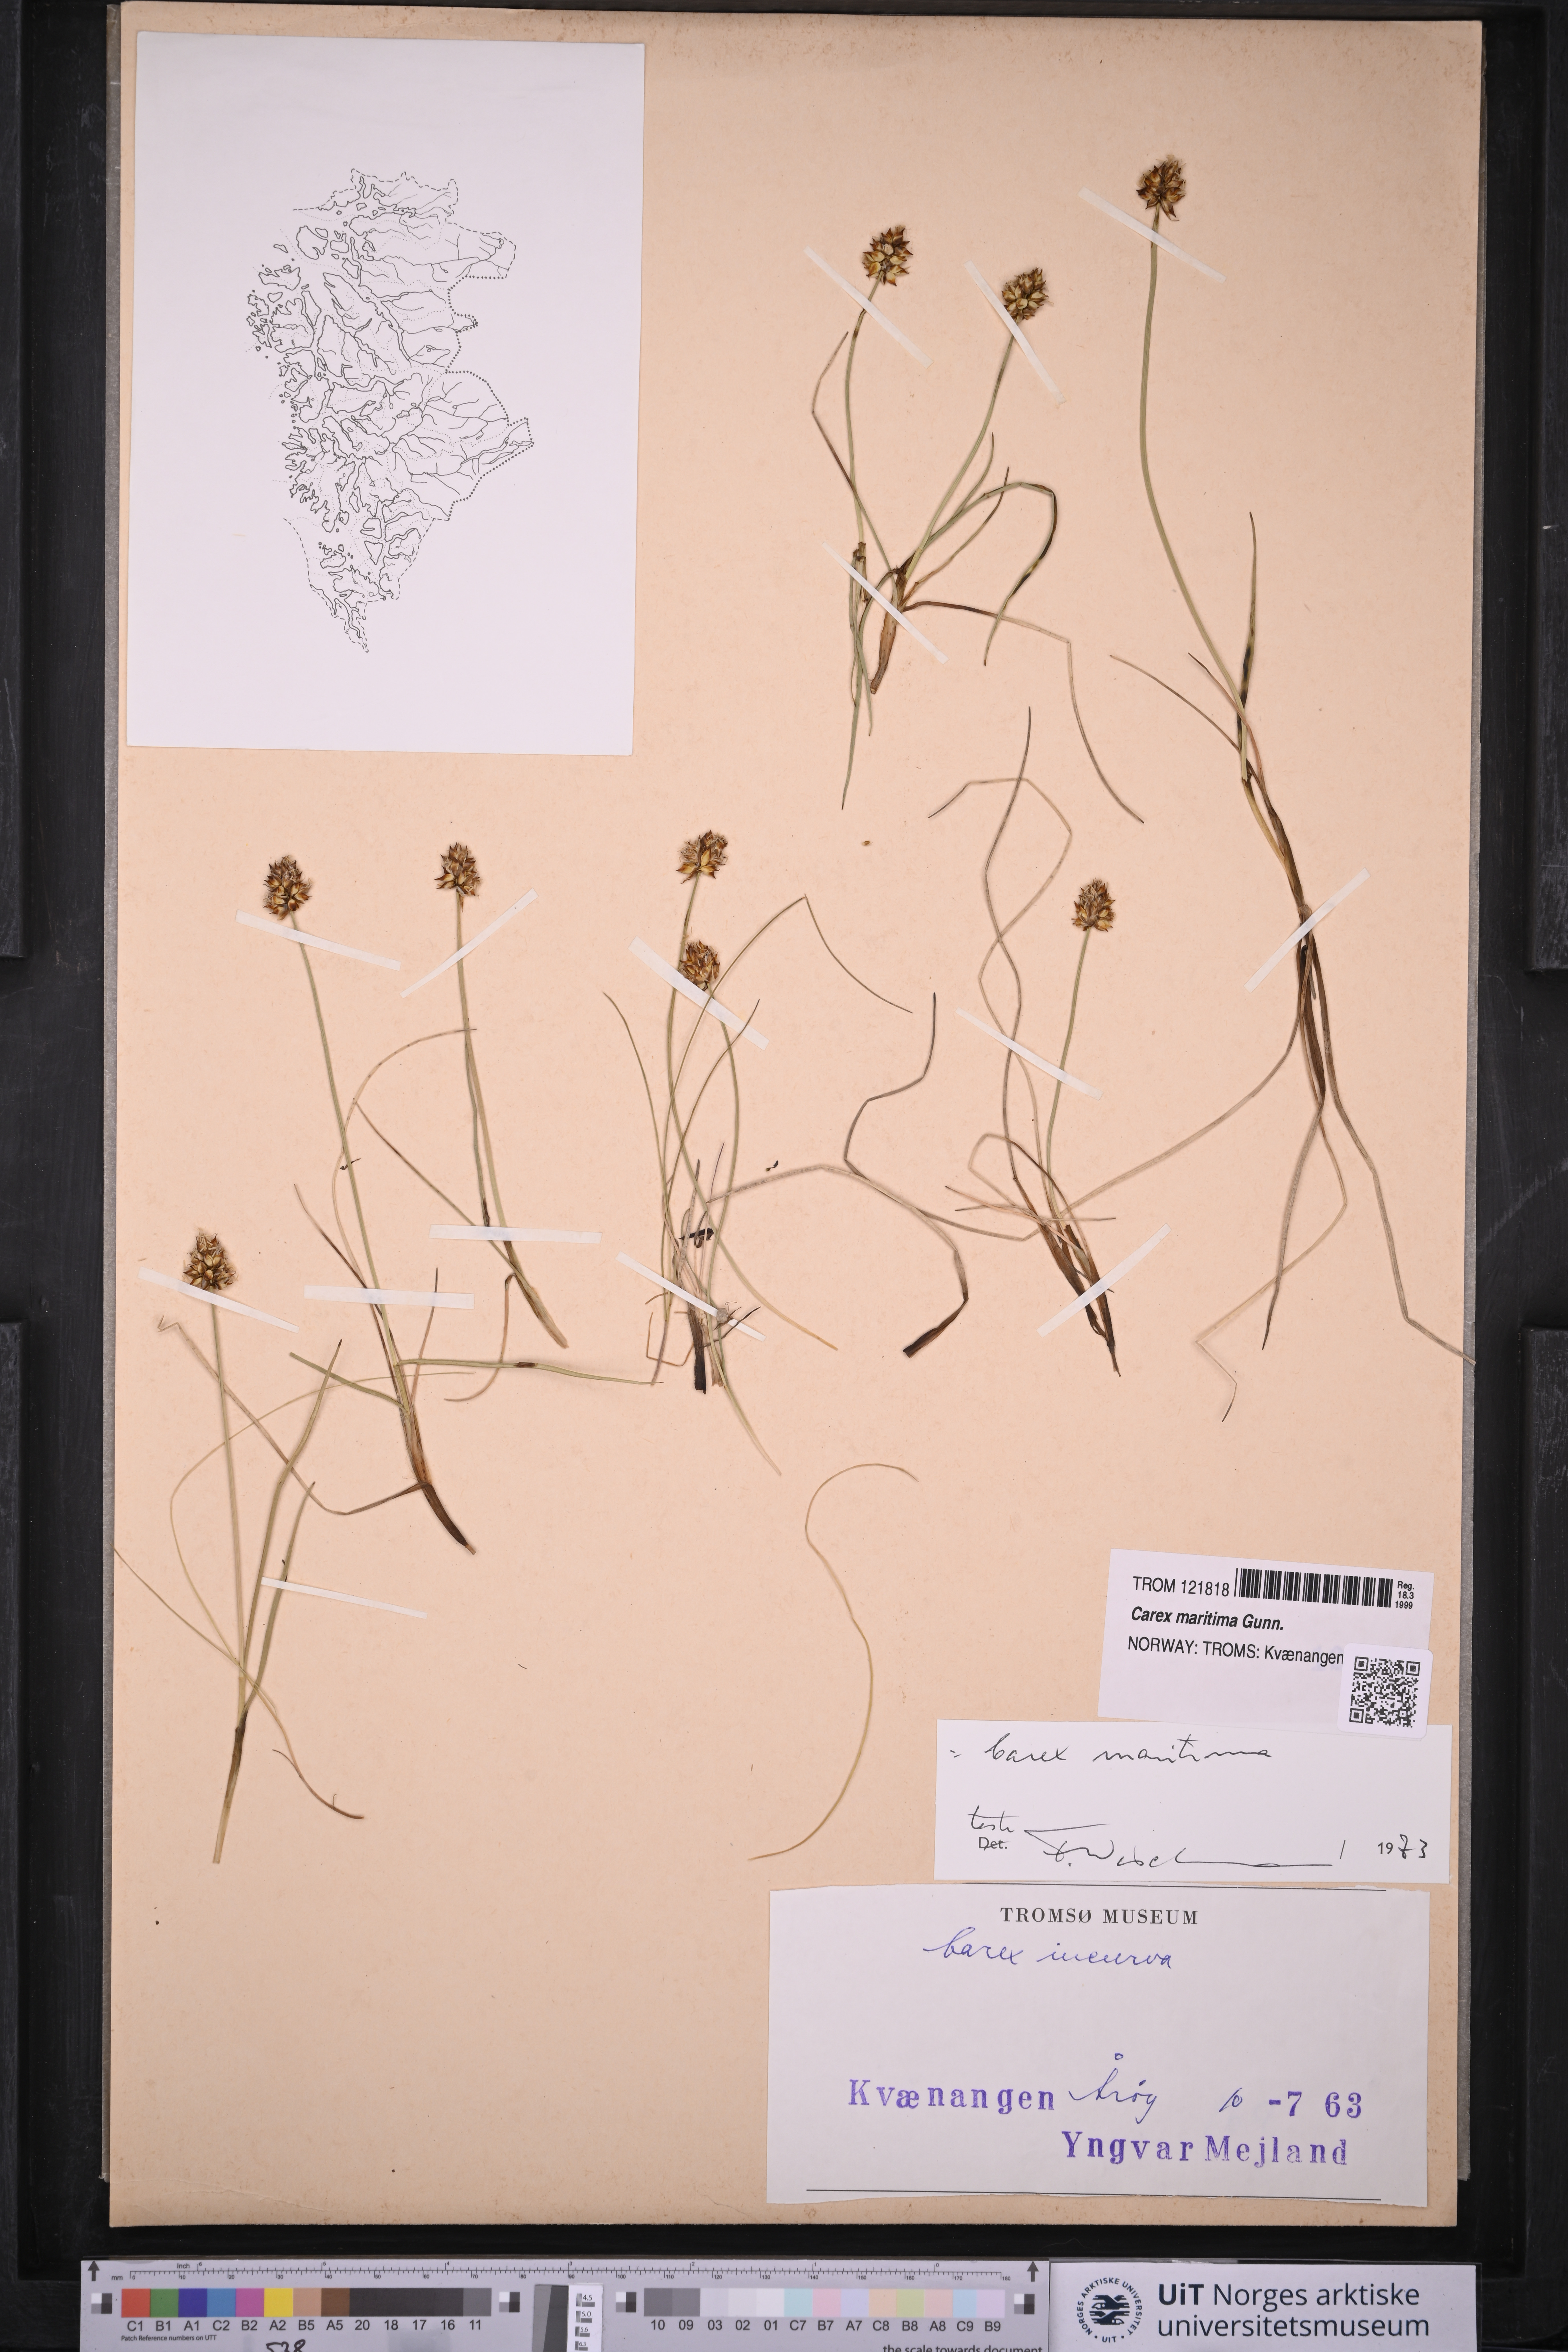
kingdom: Plantae
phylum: Tracheophyta
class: Liliopsida
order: Poales
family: Cyperaceae
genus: Carex
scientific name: Carex maritima
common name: Curved sedge
